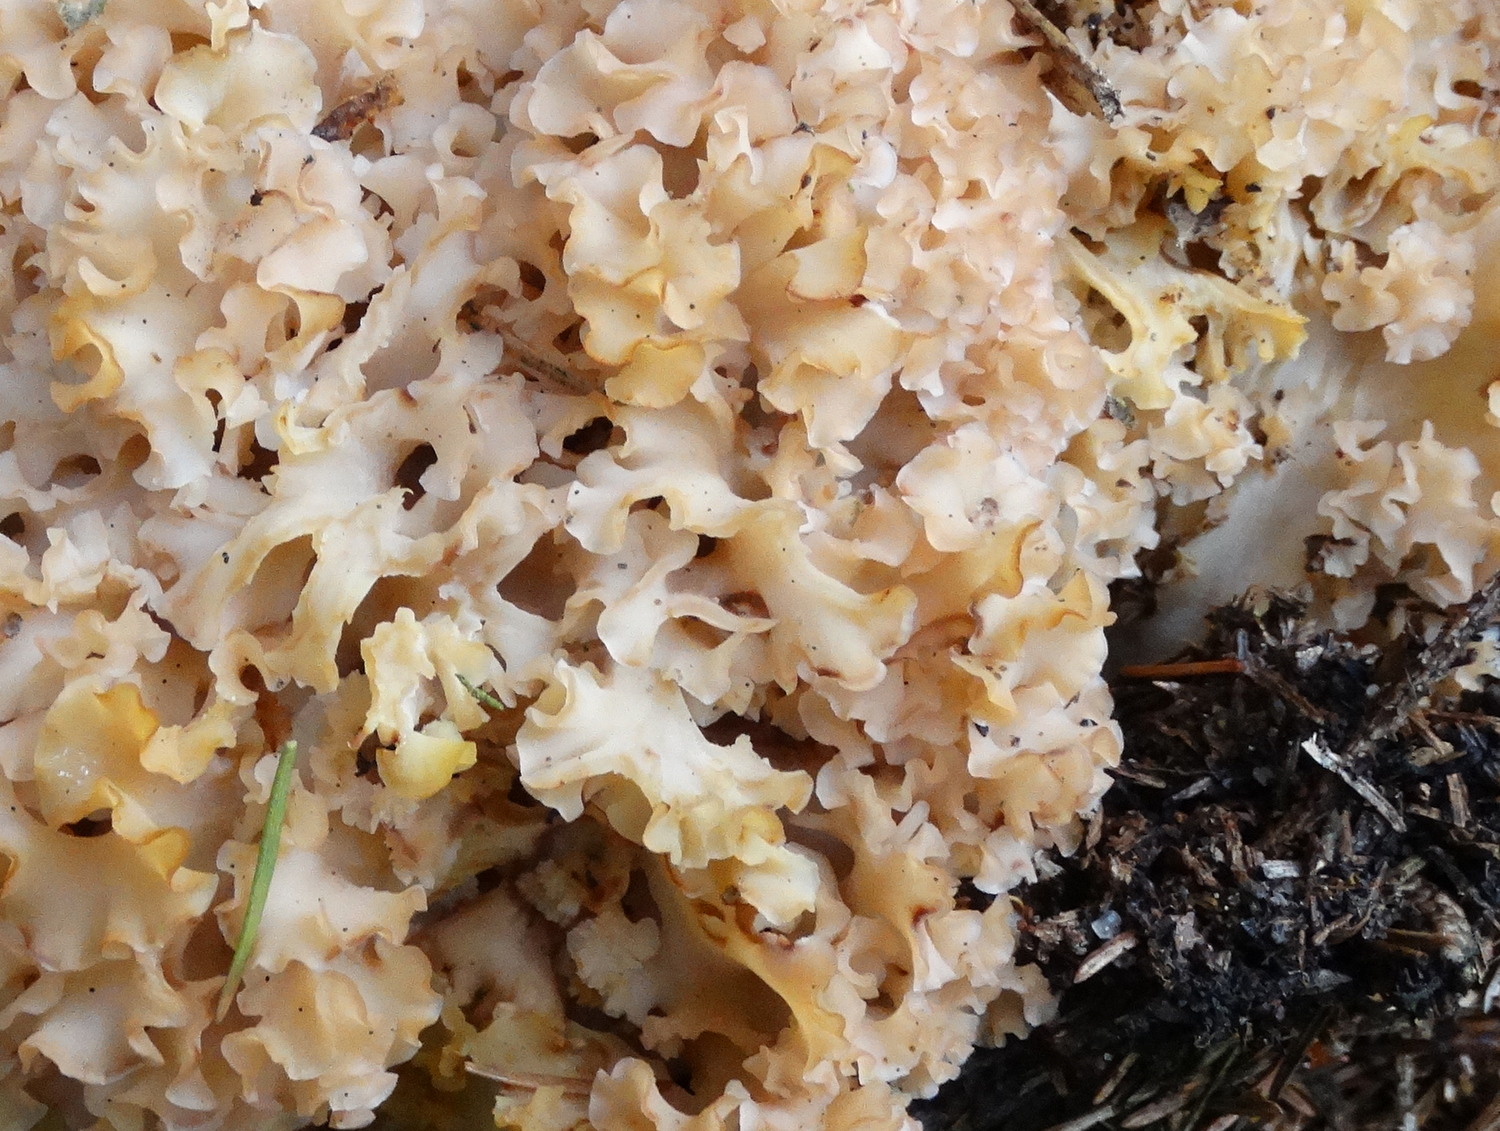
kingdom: Fungi
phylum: Basidiomycota
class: Agaricomycetes
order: Polyporales
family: Sparassidaceae
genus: Sparassis
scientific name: Sparassis crispa
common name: kruset blomkålssvamp
